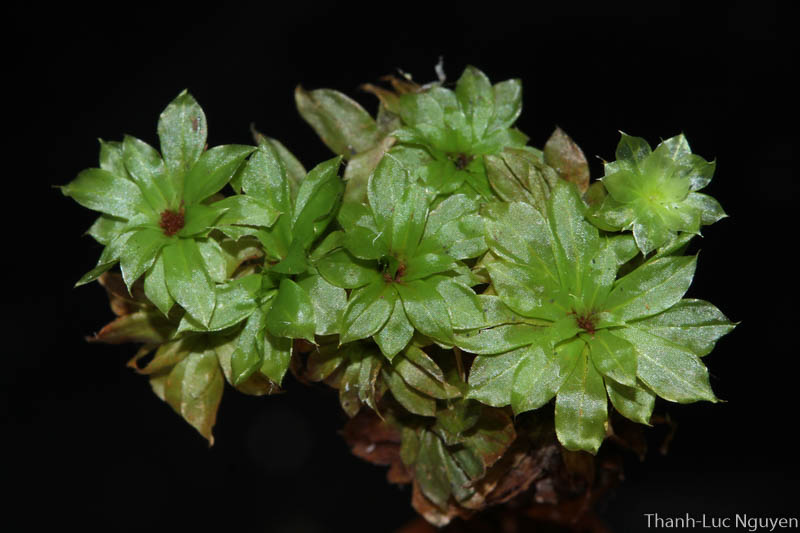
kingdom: Plantae
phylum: Bryophyta
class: Bryopsida
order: Bryales
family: Bryaceae
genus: Rhodobryum
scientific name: Rhodobryum
